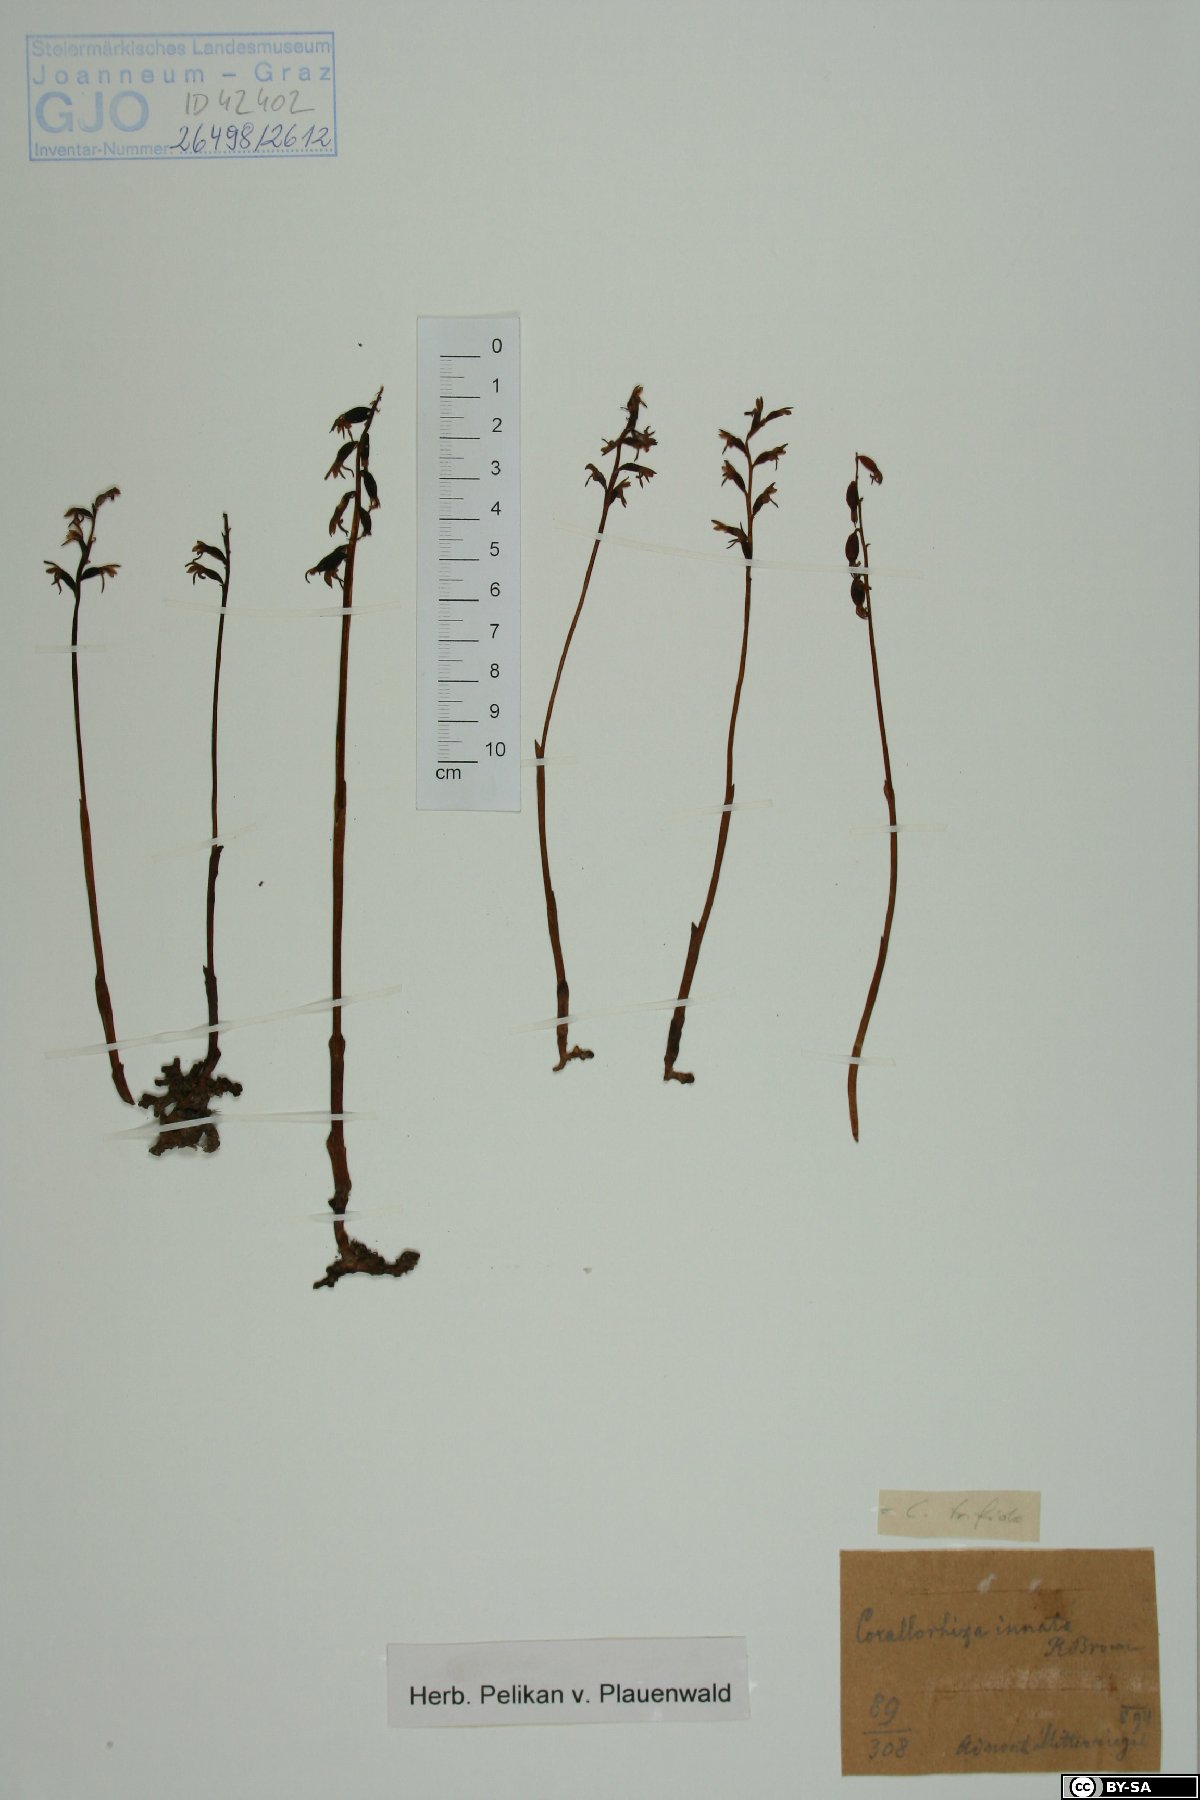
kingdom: Plantae
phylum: Tracheophyta
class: Liliopsida
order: Asparagales
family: Orchidaceae
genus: Corallorhiza
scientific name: Corallorhiza trifida
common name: Yellow coralroot
